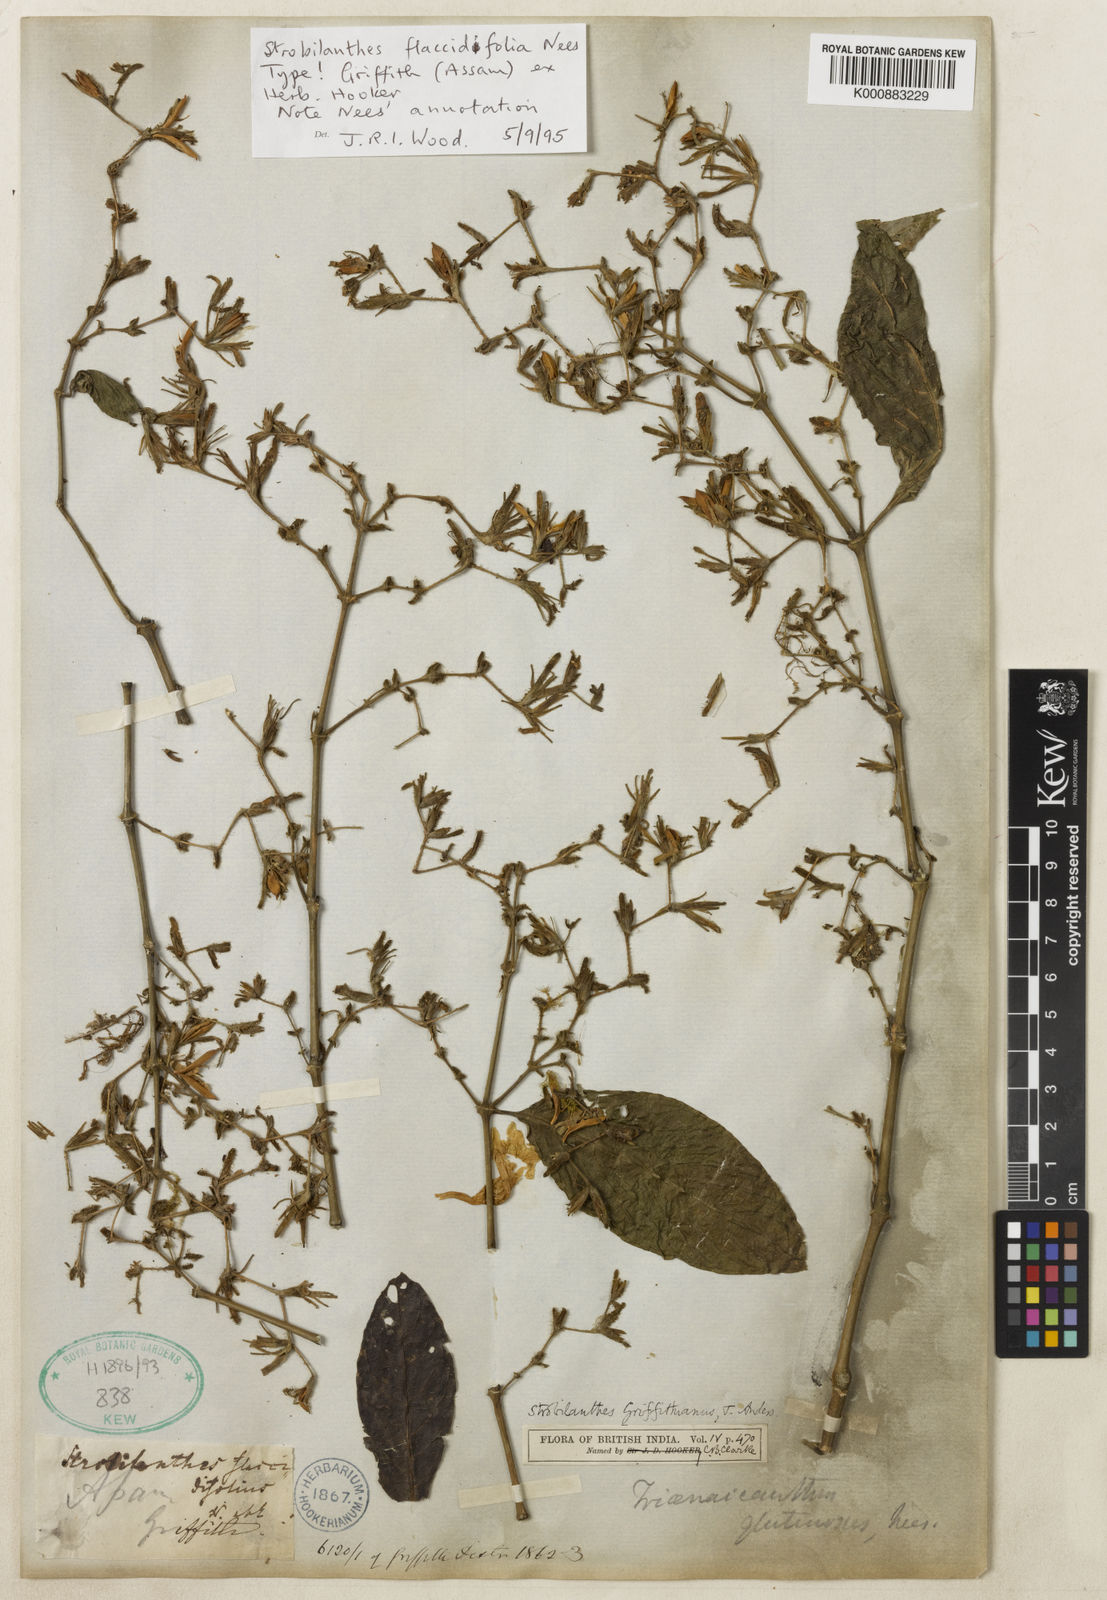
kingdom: Plantae
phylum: Tracheophyta
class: Magnoliopsida
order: Lamiales
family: Acanthaceae
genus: Strobilanthes
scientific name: Strobilanthes cusia
